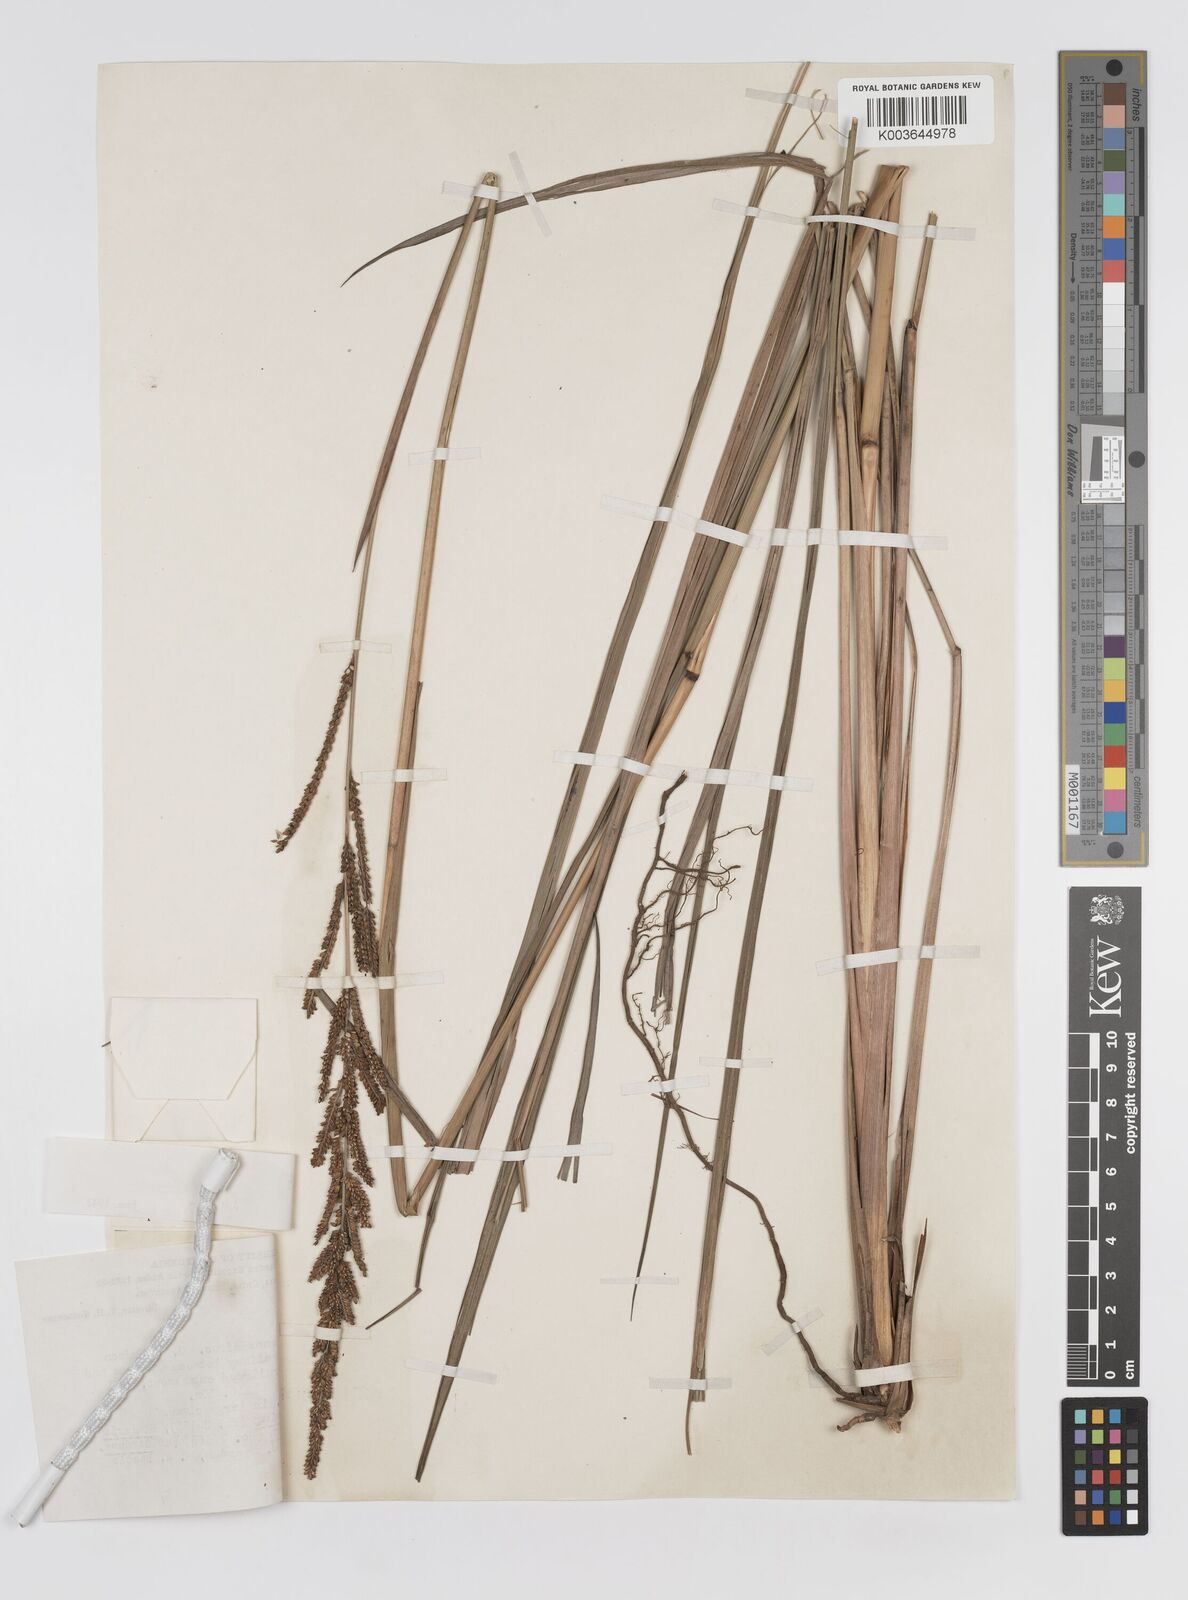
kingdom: Plantae
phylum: Tracheophyta
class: Liliopsida
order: Poales
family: Poaceae
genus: Paspalum
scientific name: Paspalum quadrifarium
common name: Tussock paspalum
